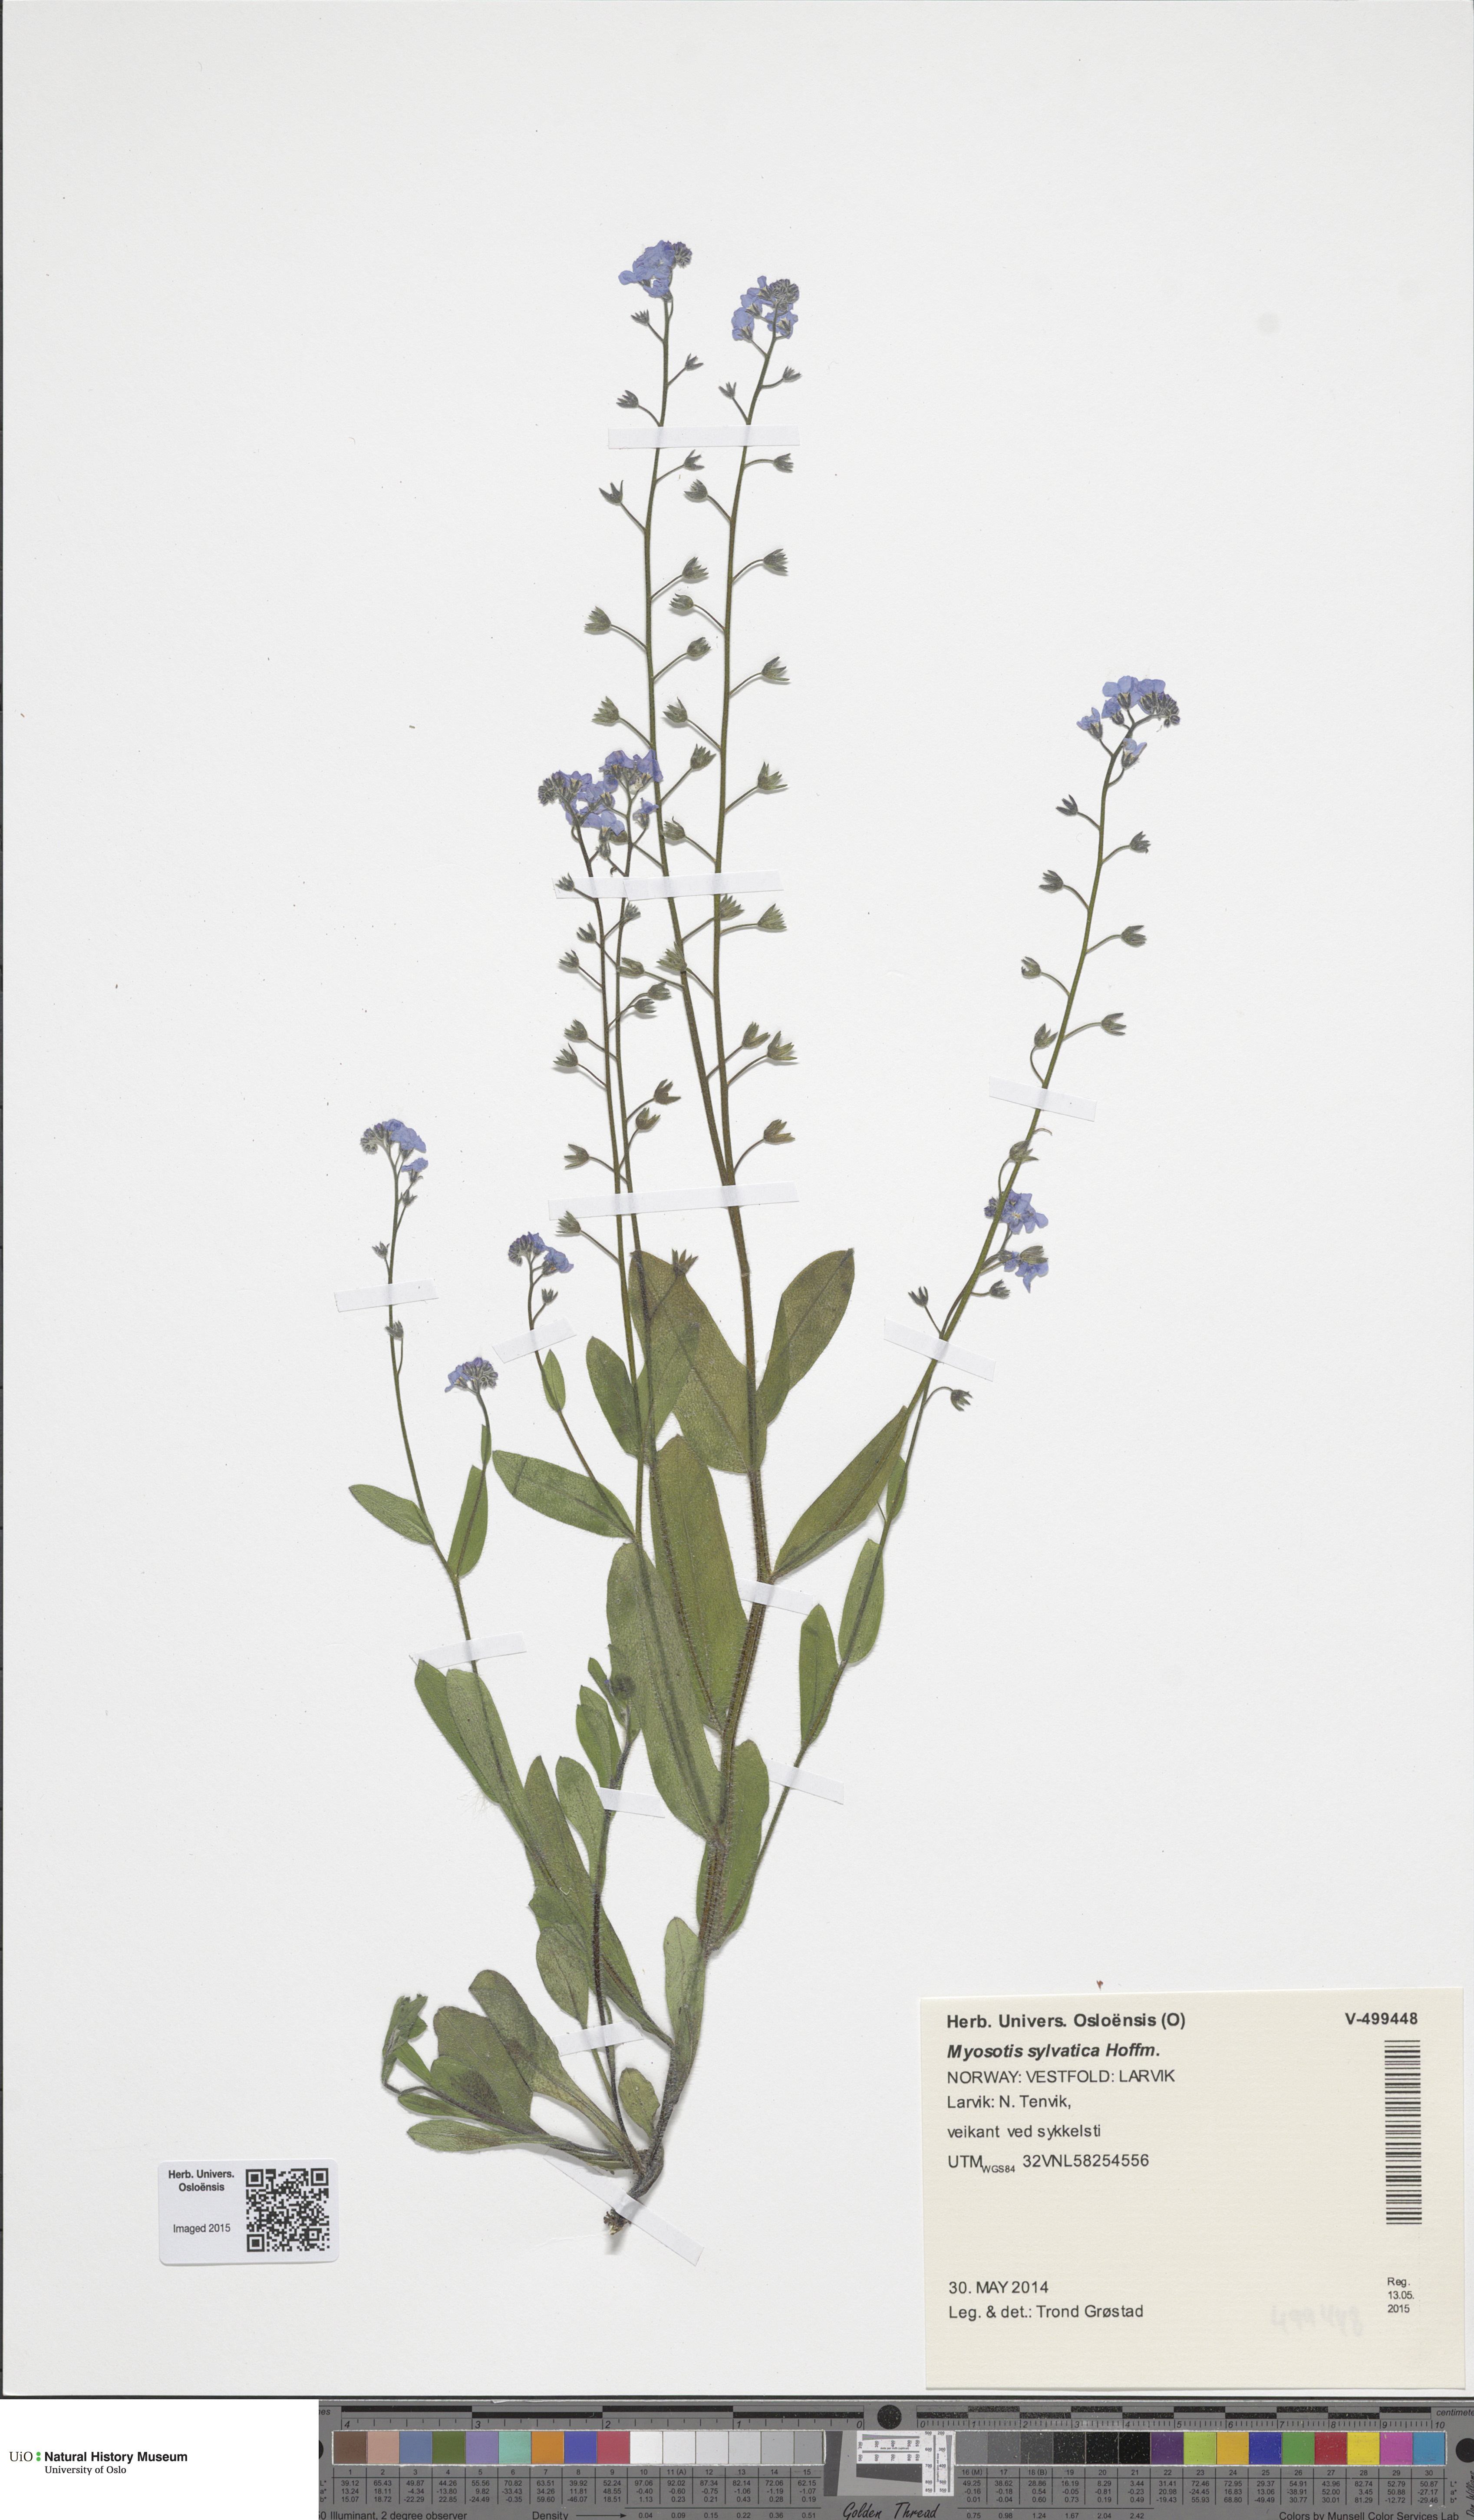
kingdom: Plantae
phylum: Tracheophyta
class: Magnoliopsida
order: Boraginales
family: Boraginaceae
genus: Myosotis
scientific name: Myosotis sylvatica
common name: Wood forget-me-not
